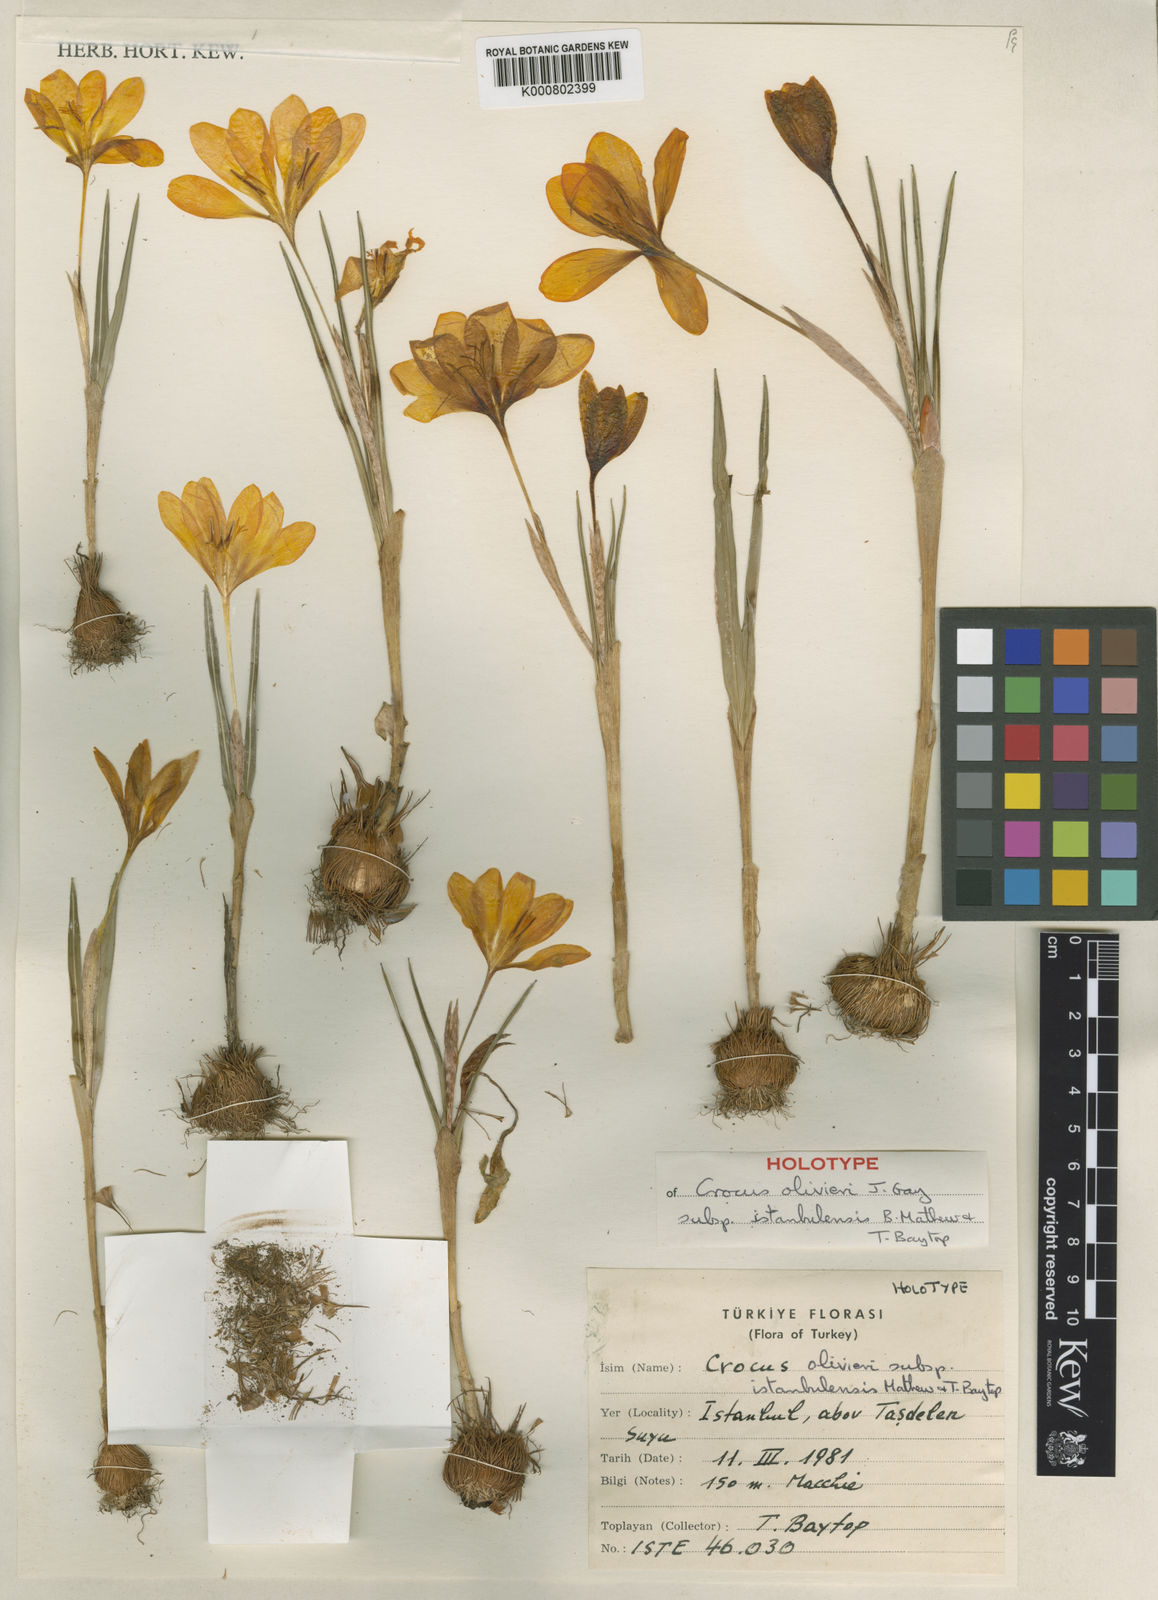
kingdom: Plantae
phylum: Tracheophyta
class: Liliopsida
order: Asparagales
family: Iridaceae
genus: Crocus
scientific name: Crocus istanbulensis
